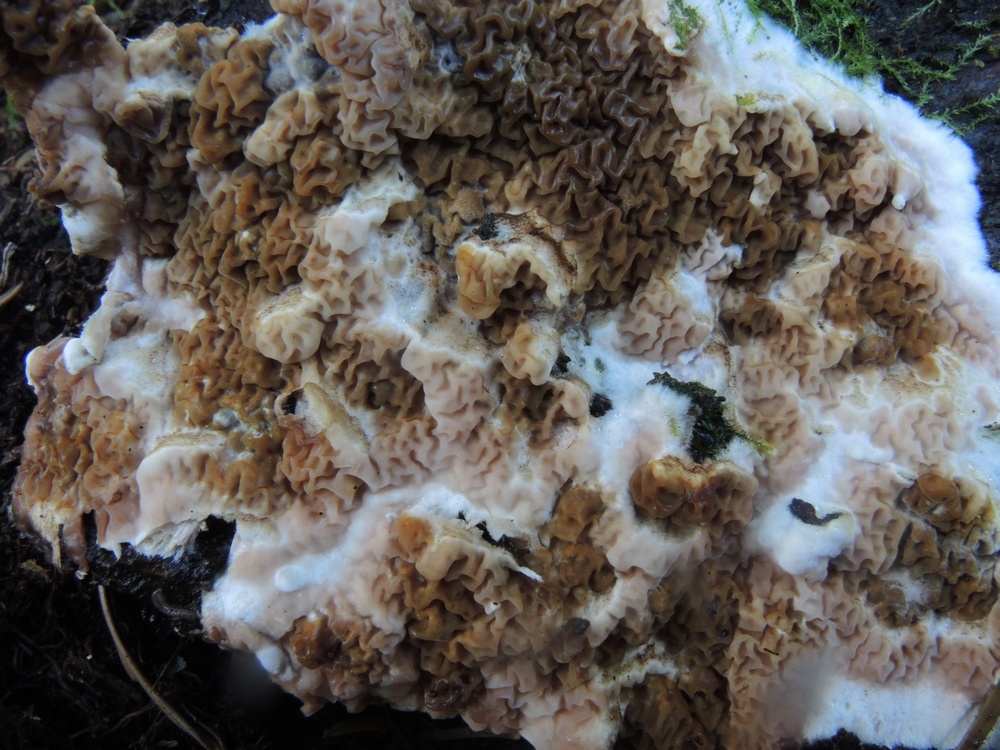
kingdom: Fungi
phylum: Basidiomycota
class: Agaricomycetes
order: Boletales
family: Serpulaceae
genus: Serpula
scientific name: Serpula himantioides
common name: tyndkødet hussvamp
